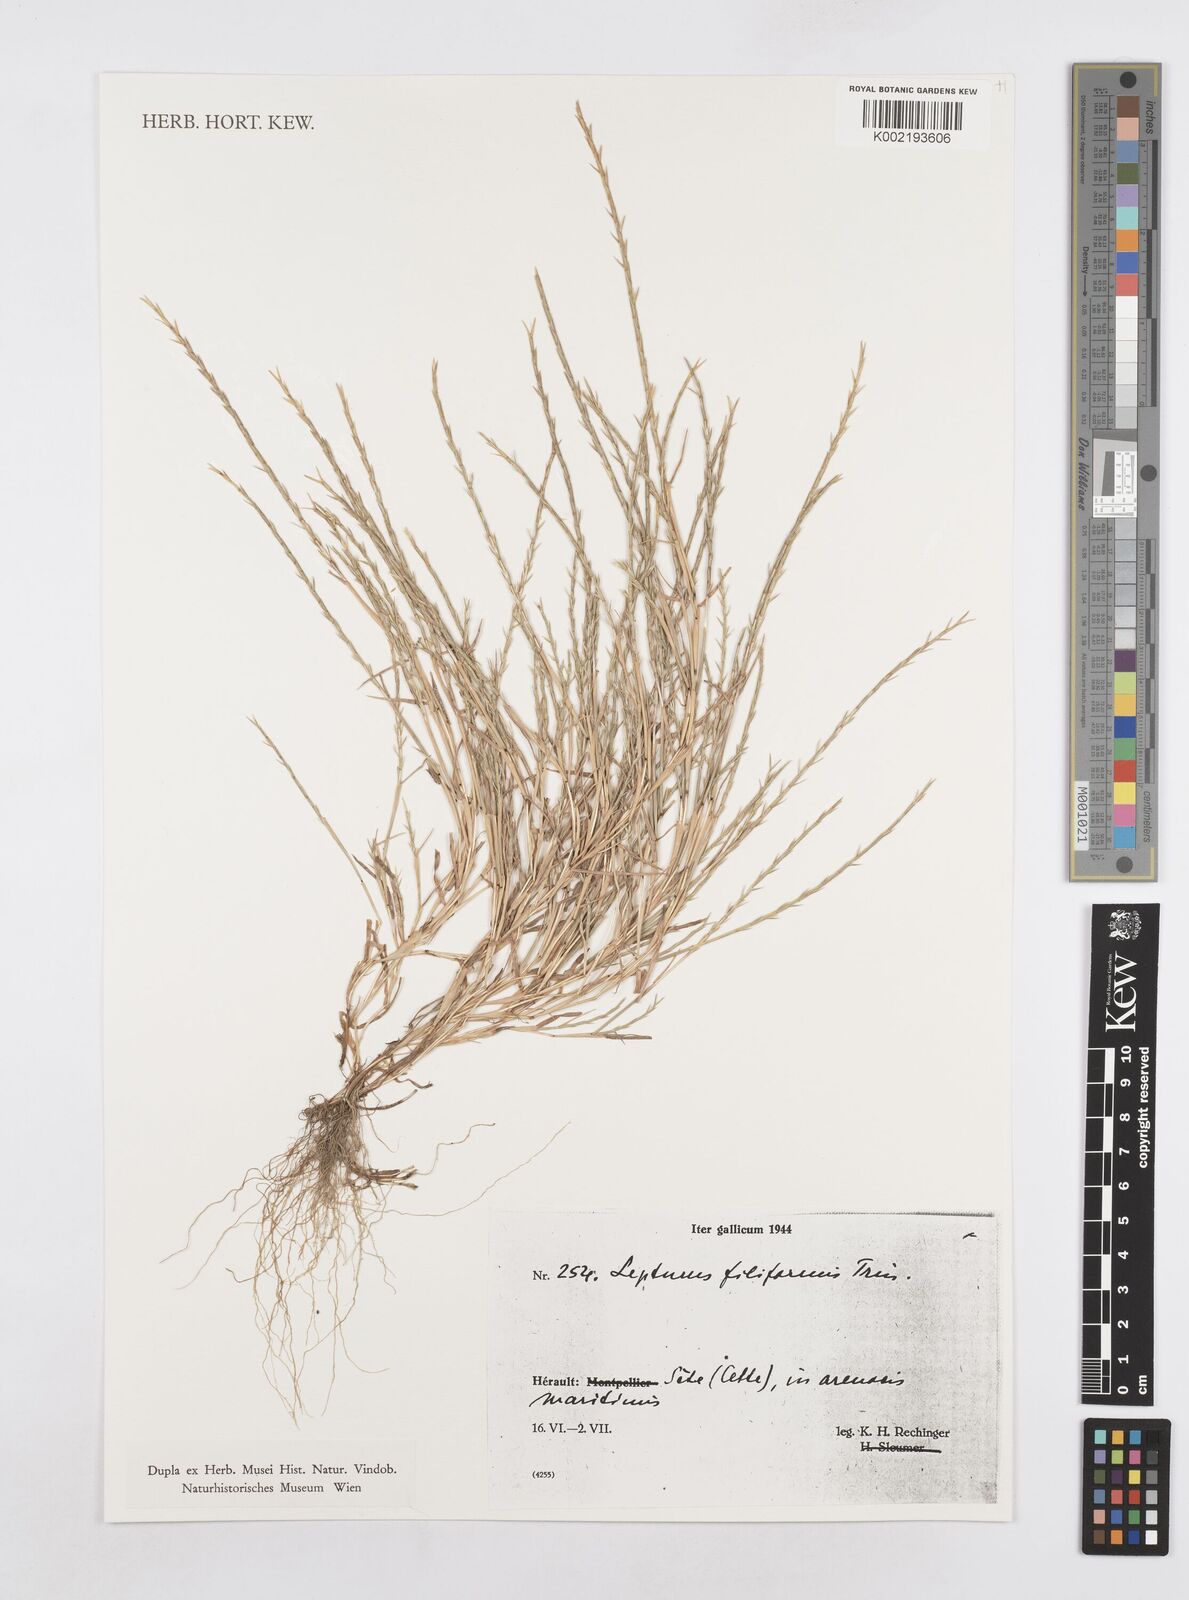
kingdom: Plantae
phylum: Tracheophyta
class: Liliopsida
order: Poales
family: Poaceae
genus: Parapholis
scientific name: Parapholis filiformis
